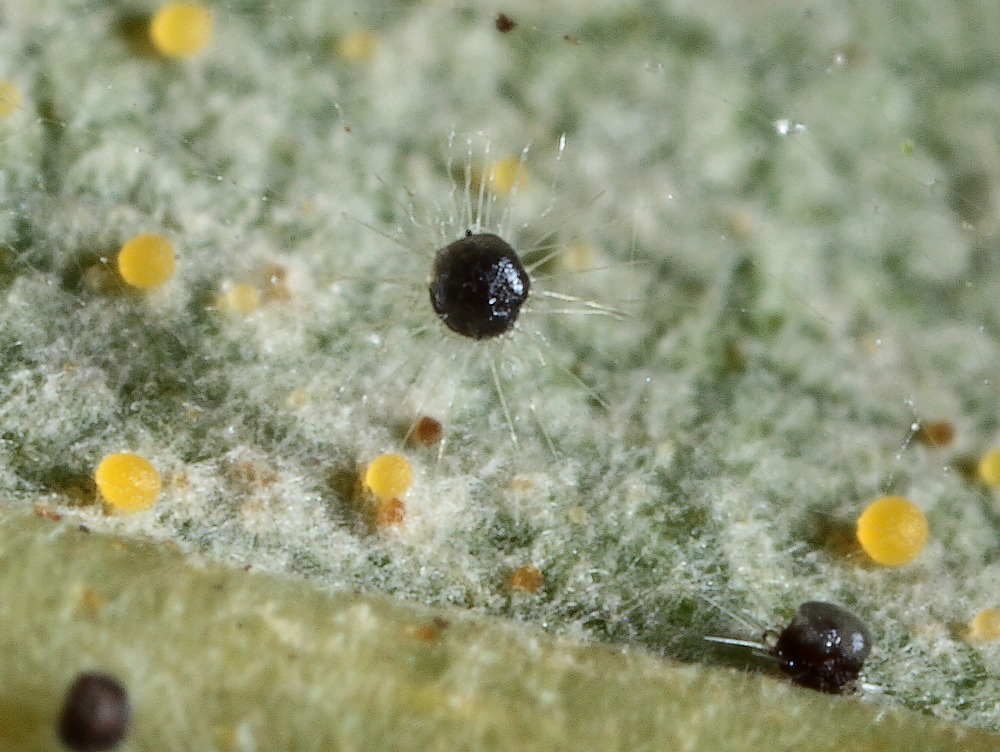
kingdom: Fungi
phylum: Ascomycota
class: Leotiomycetes
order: Helotiales
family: Erysiphaceae
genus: Phyllactinia
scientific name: Phyllactinia guttata
